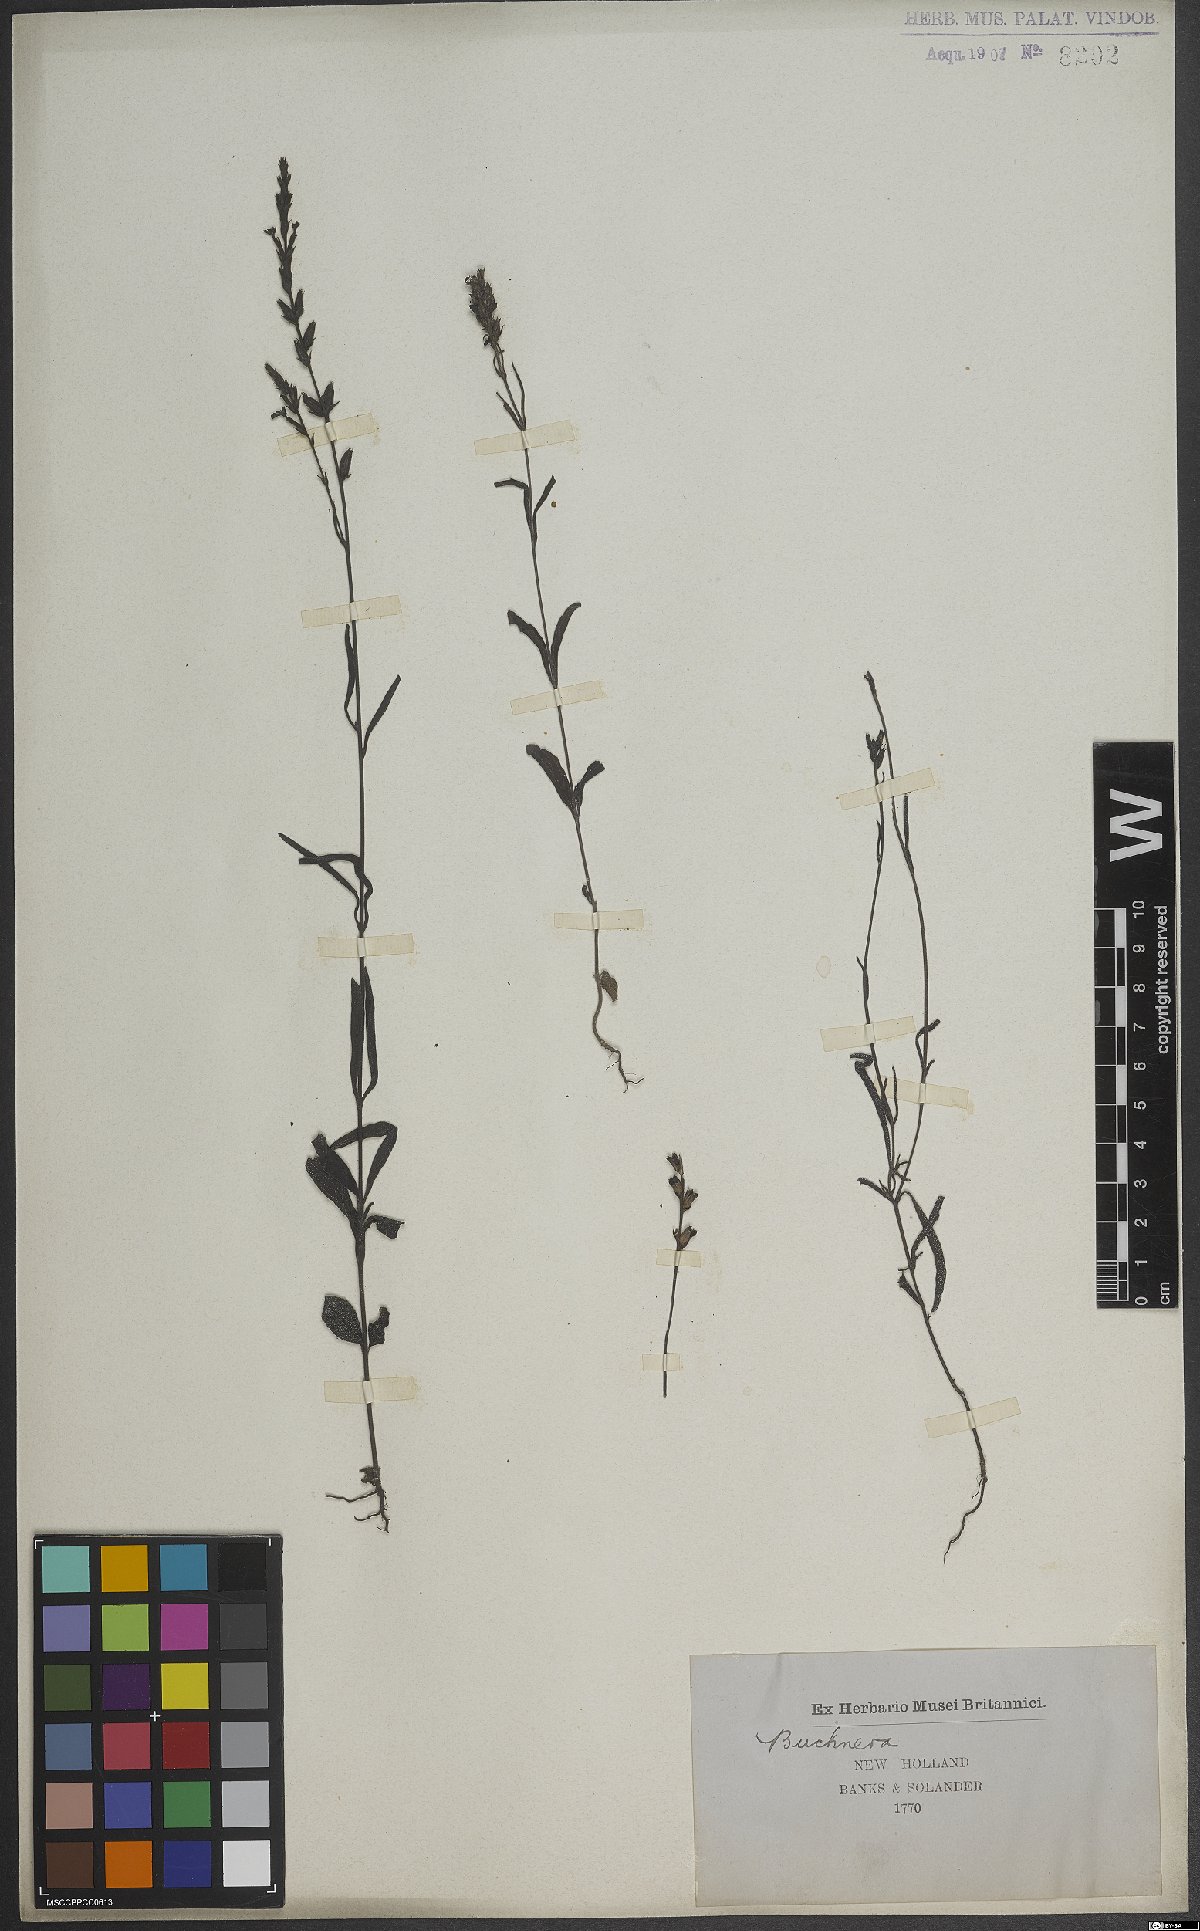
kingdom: Plantae
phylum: Tracheophyta
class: Magnoliopsida
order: Lamiales
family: Orobanchaceae
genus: Buchnera
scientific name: Buchnera
